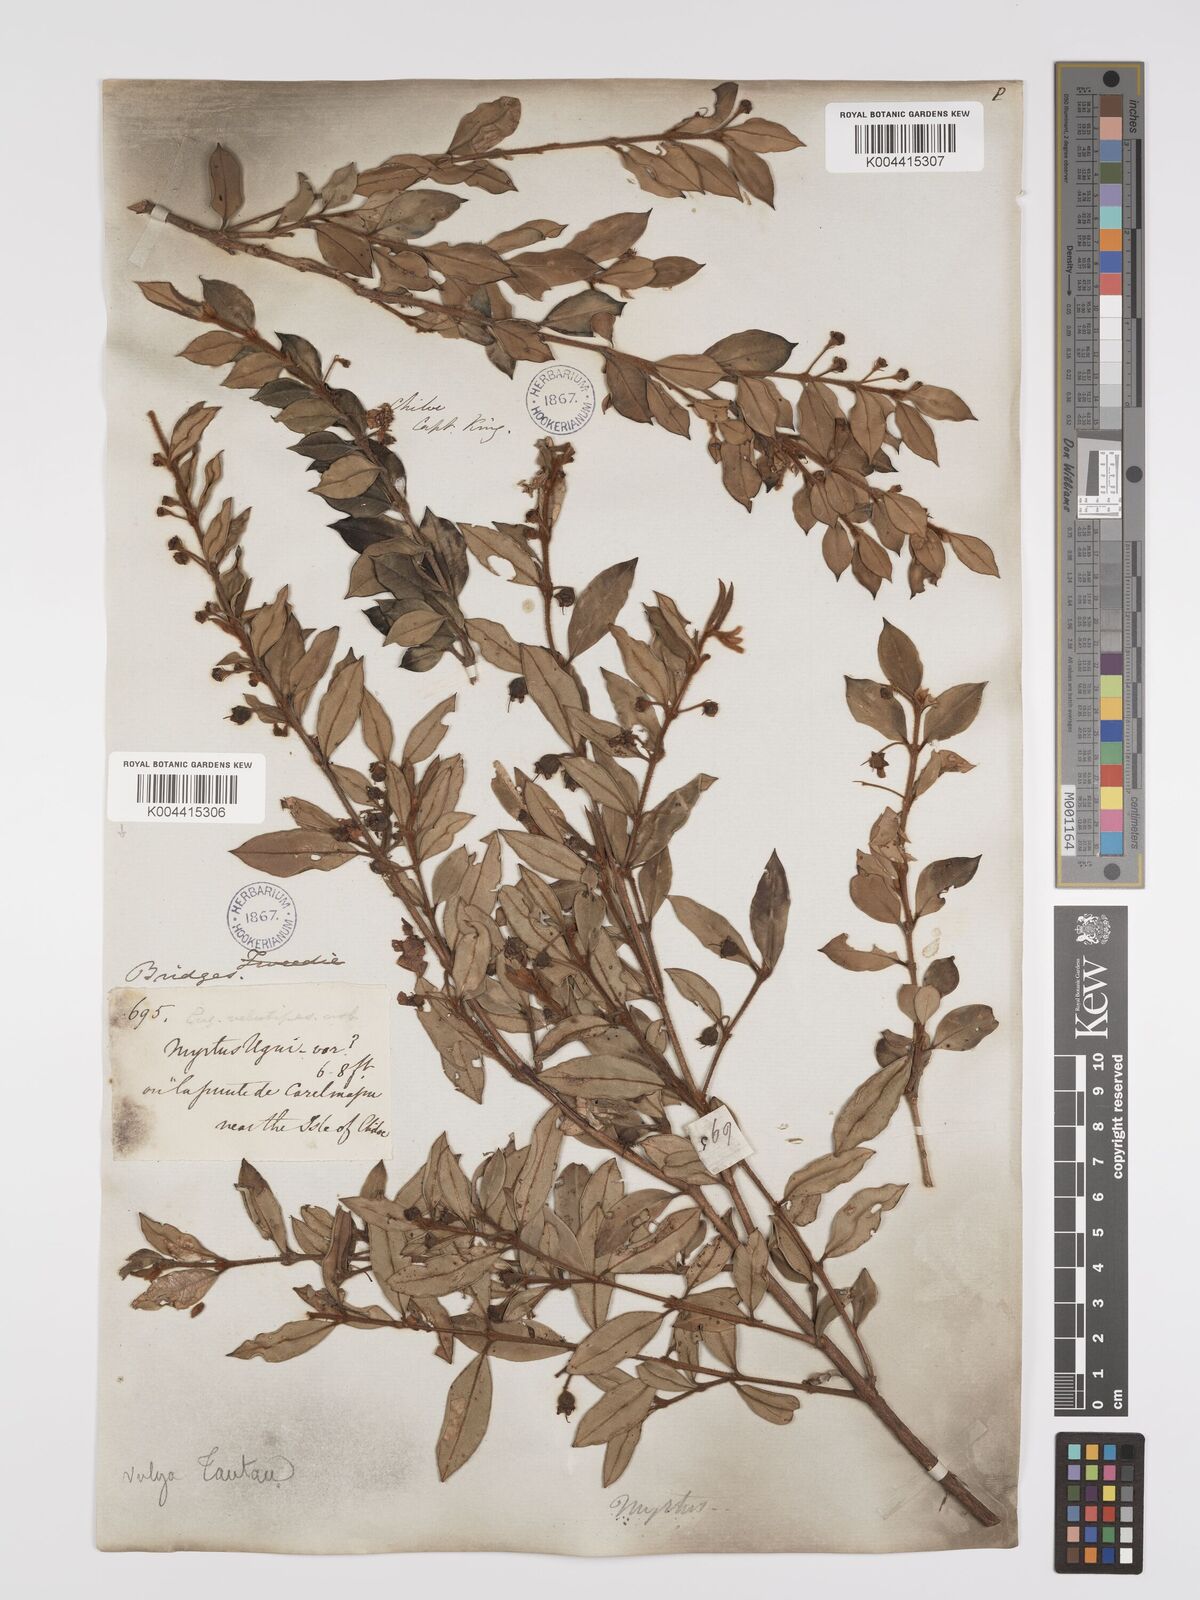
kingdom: Plantae
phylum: Tracheophyta
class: Magnoliopsida
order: Myrtales
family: Myrtaceae
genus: Ugni
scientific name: Ugni candollei
